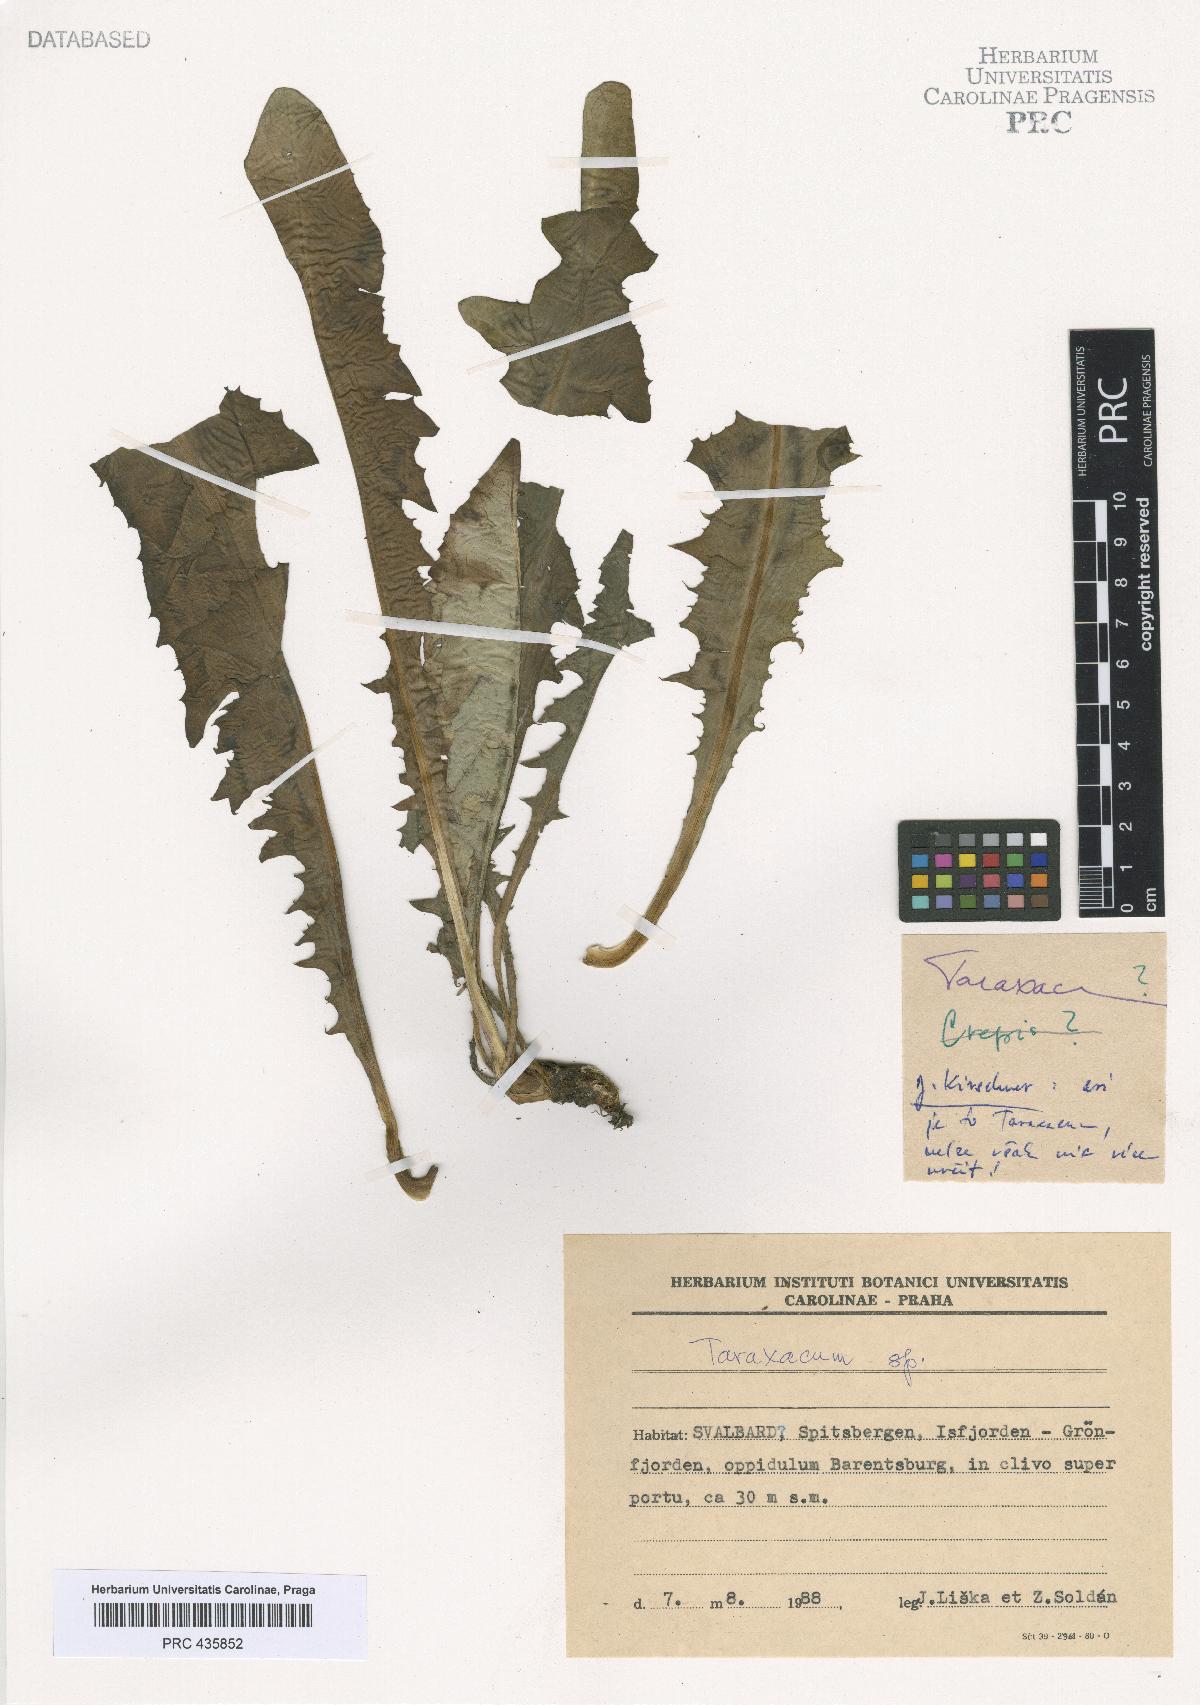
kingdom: Plantae
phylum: Tracheophyta
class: Magnoliopsida
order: Asterales
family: Asteraceae
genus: Taraxacum
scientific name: Taraxacum
